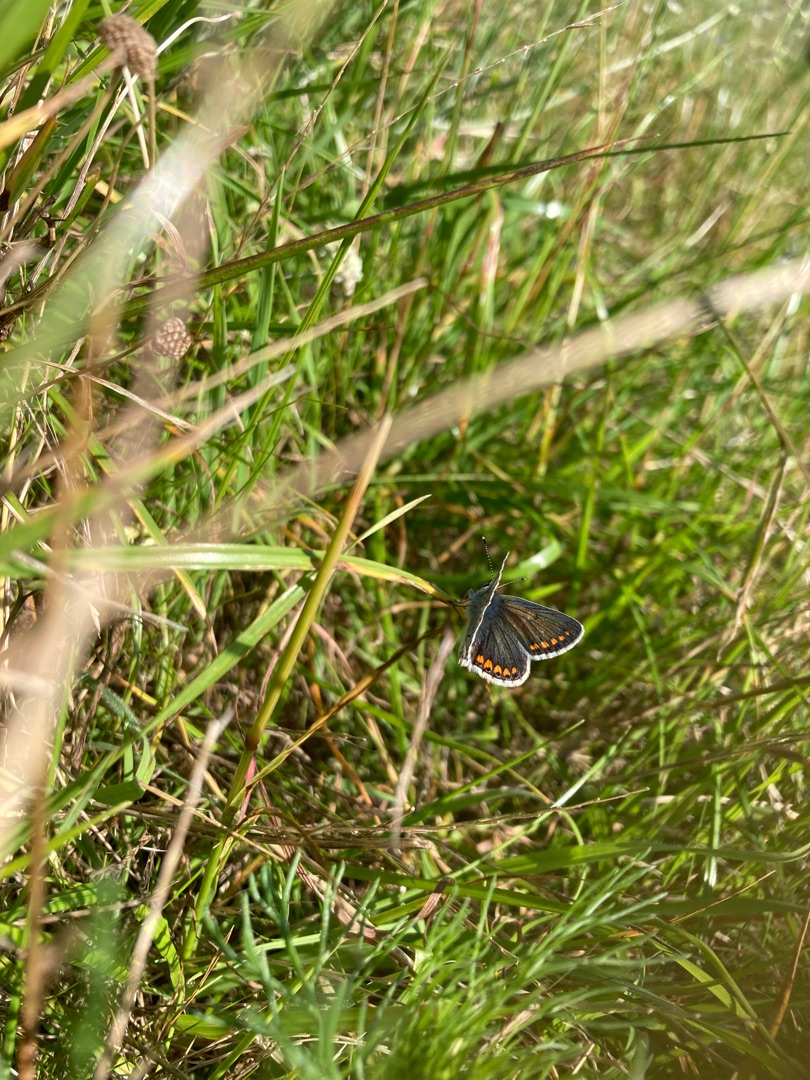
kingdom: Animalia
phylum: Arthropoda
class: Insecta
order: Lepidoptera
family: Lycaenidae
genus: Aricia
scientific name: Aricia agestis
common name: Rødplettet blåfugl
